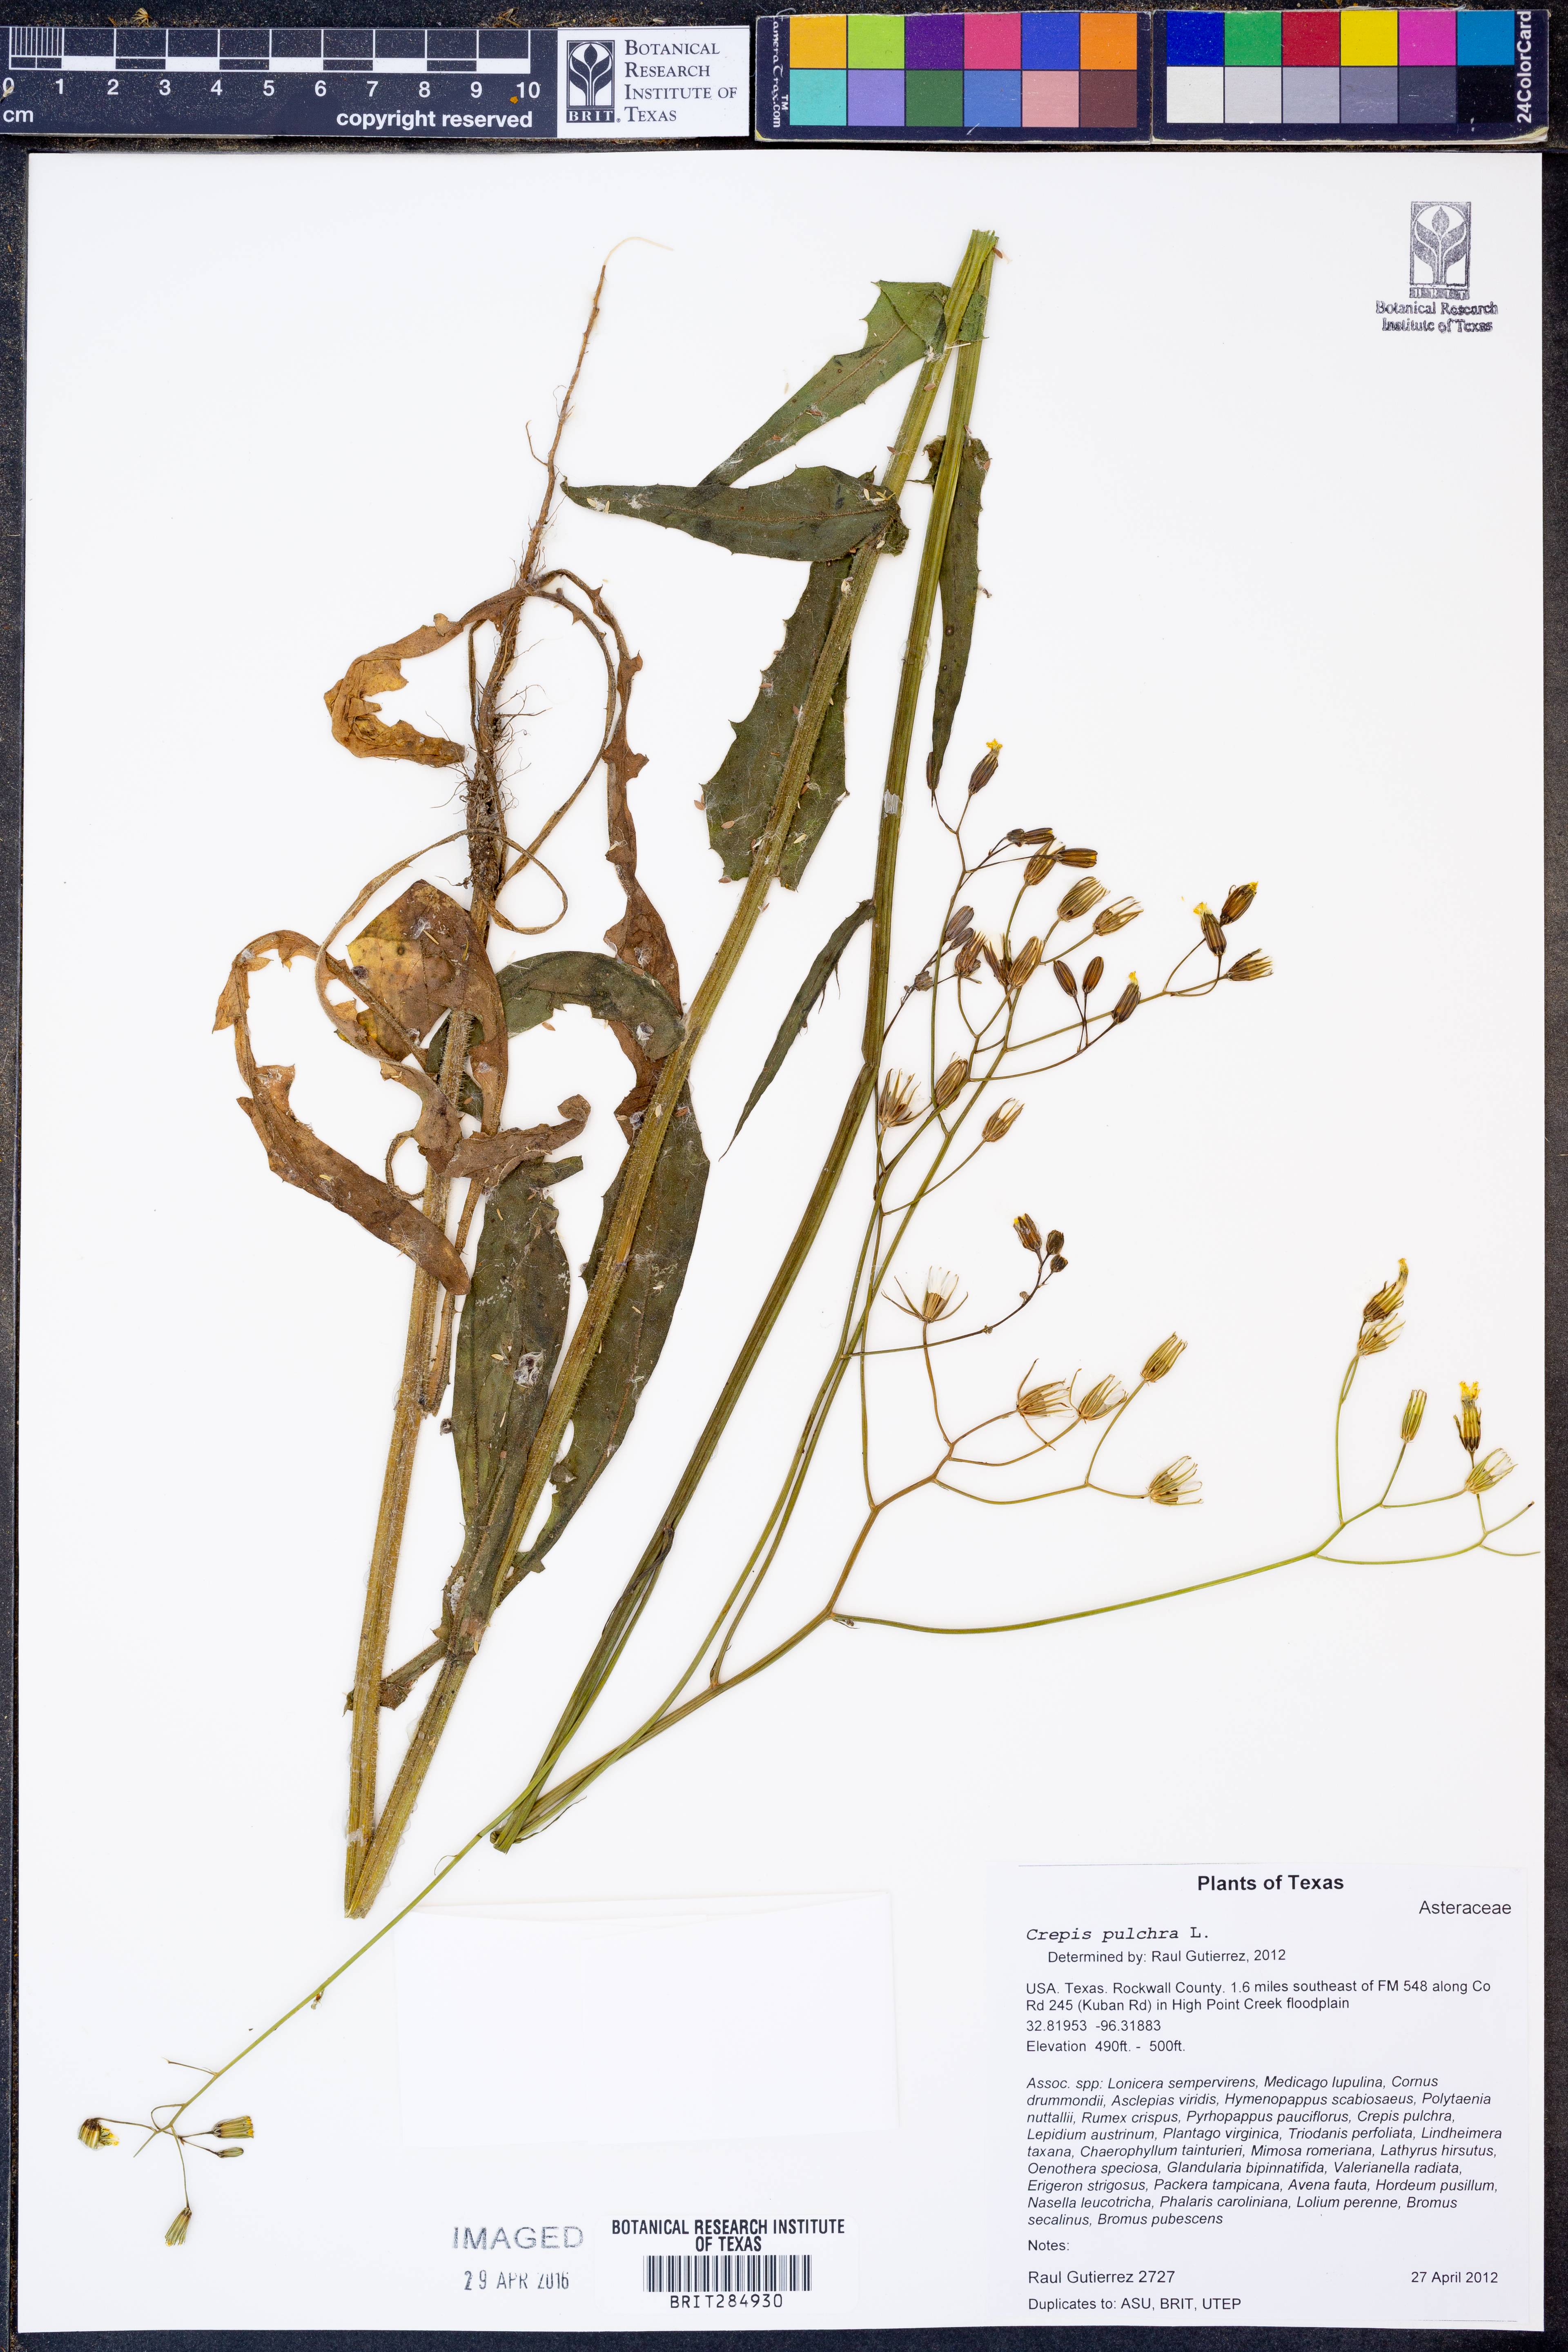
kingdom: Plantae
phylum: Tracheophyta
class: Magnoliopsida
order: Asterales
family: Asteraceae
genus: Crepis
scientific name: Crepis pulchra
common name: Hawk's-beard
